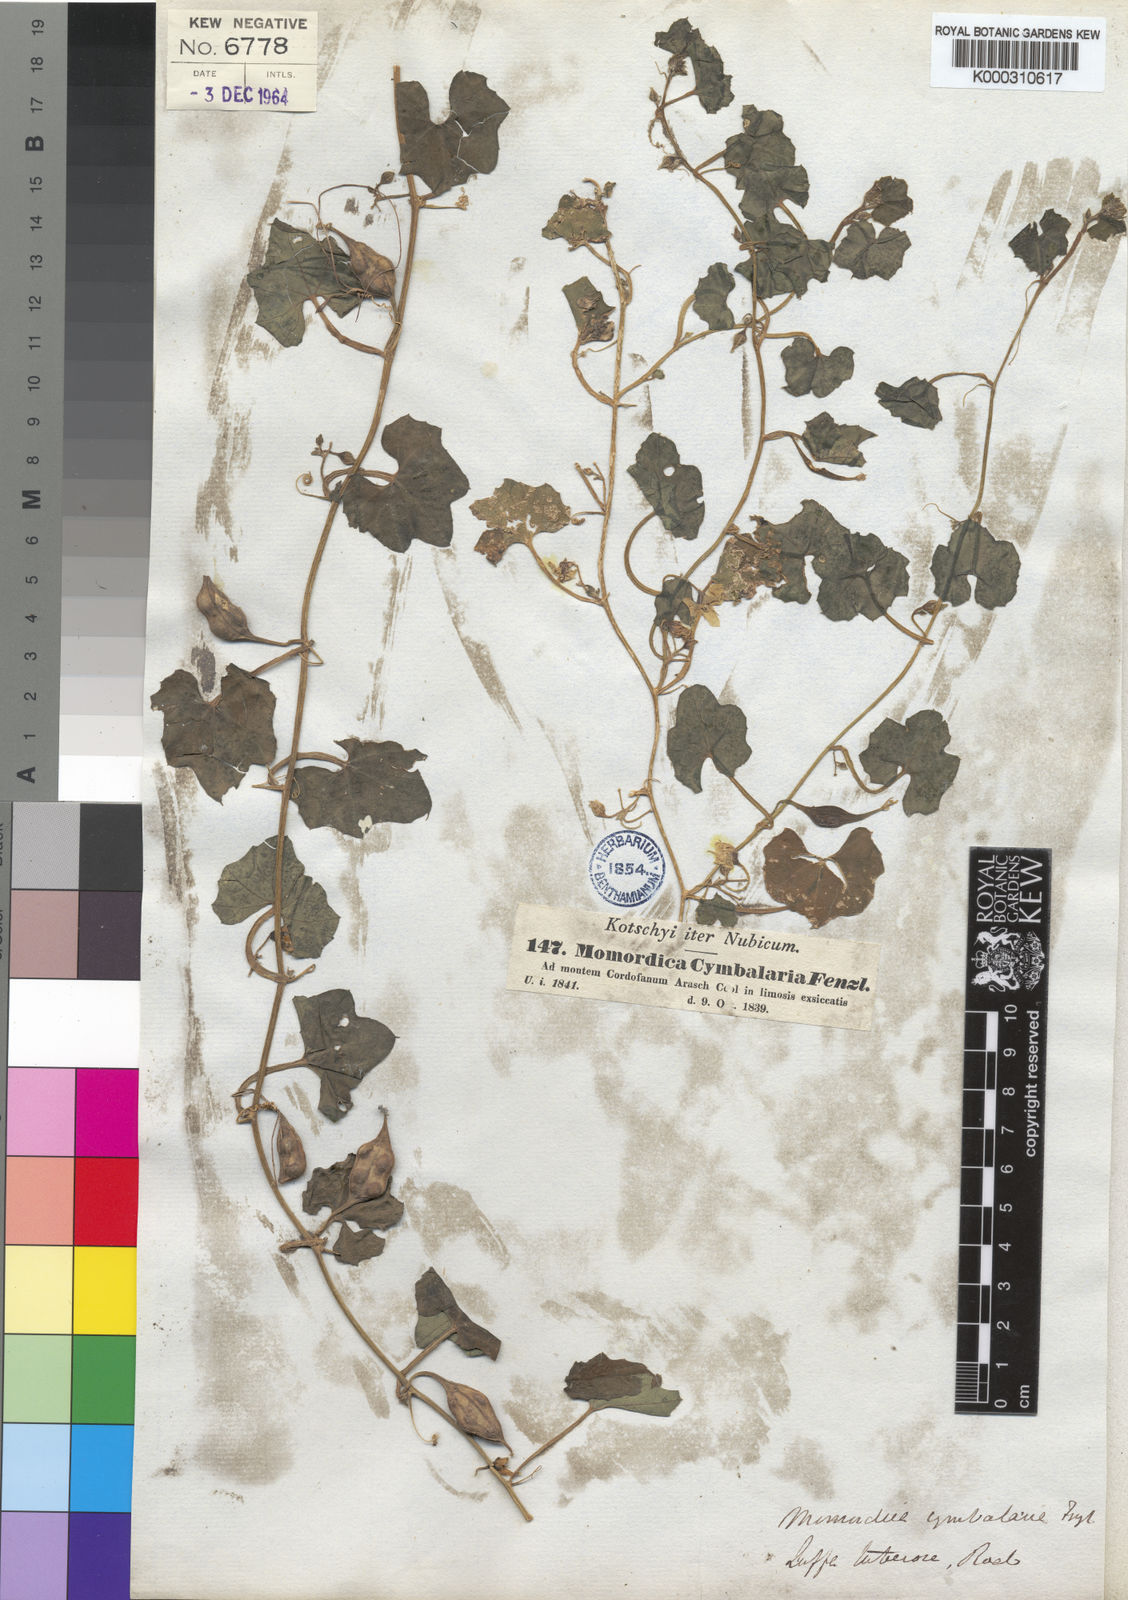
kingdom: Plantae
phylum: Tracheophyta
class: Magnoliopsida
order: Cucurbitales
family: Cucurbitaceae
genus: Momordica
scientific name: Momordica
